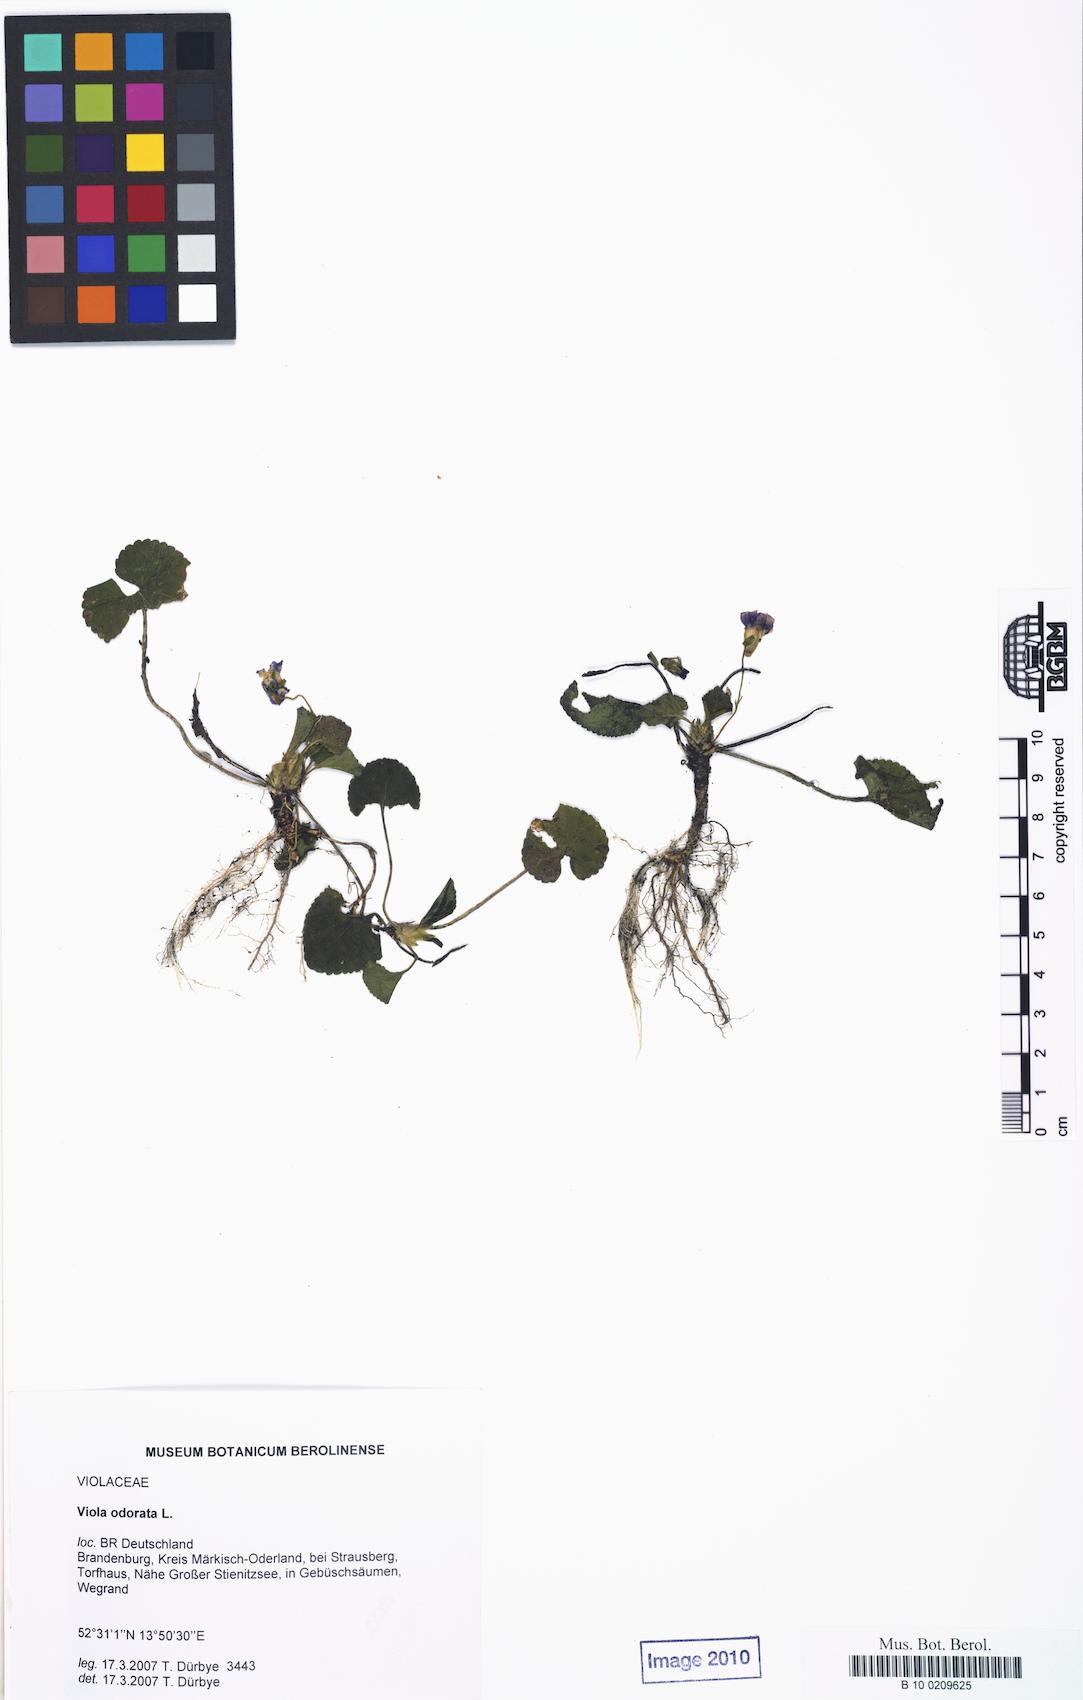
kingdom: Plantae
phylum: Tracheophyta
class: Magnoliopsida
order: Malpighiales
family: Violaceae
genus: Viola
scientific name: Viola odorata
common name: Sweet violet
